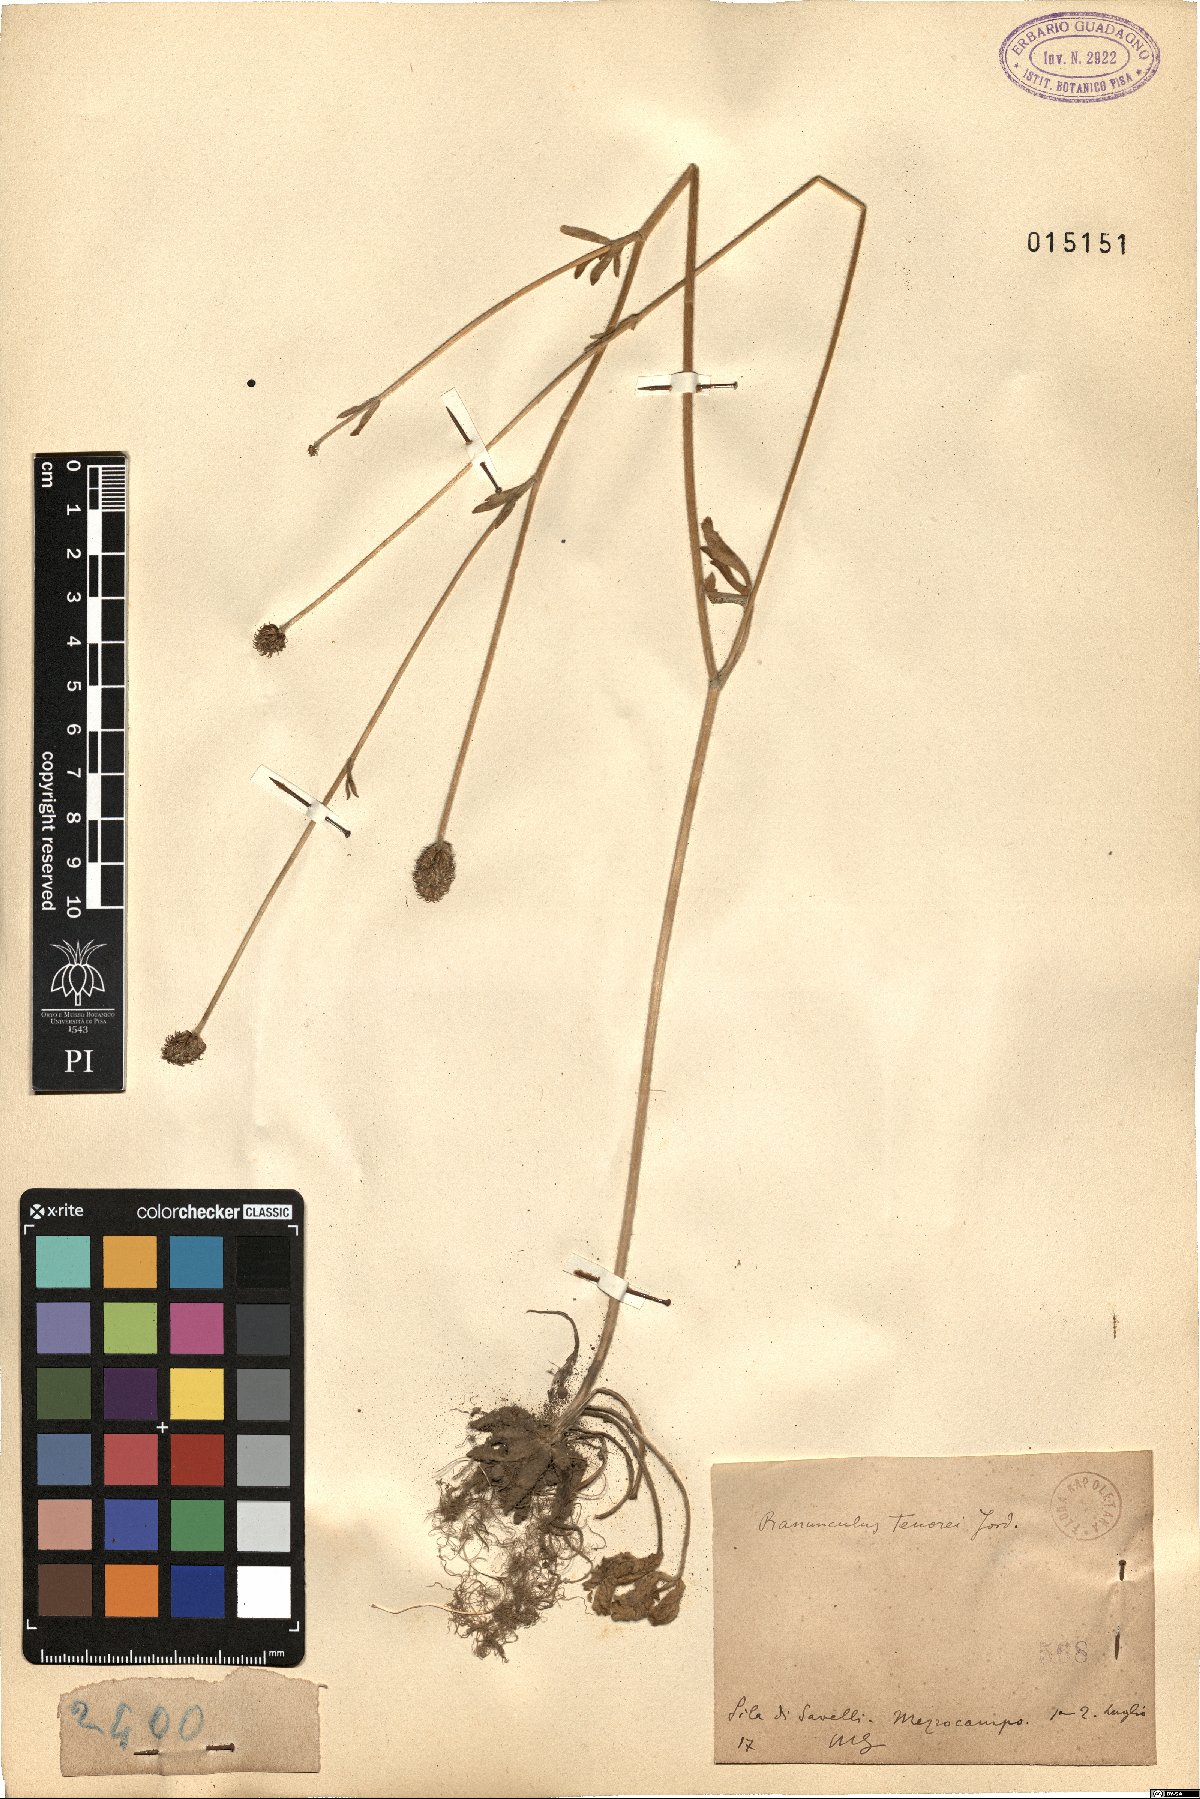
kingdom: Plantae
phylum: Tracheophyta
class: Magnoliopsida
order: Ranunculales
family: Ranunculaceae
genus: Ranunculus
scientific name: Ranunculus illyricus
